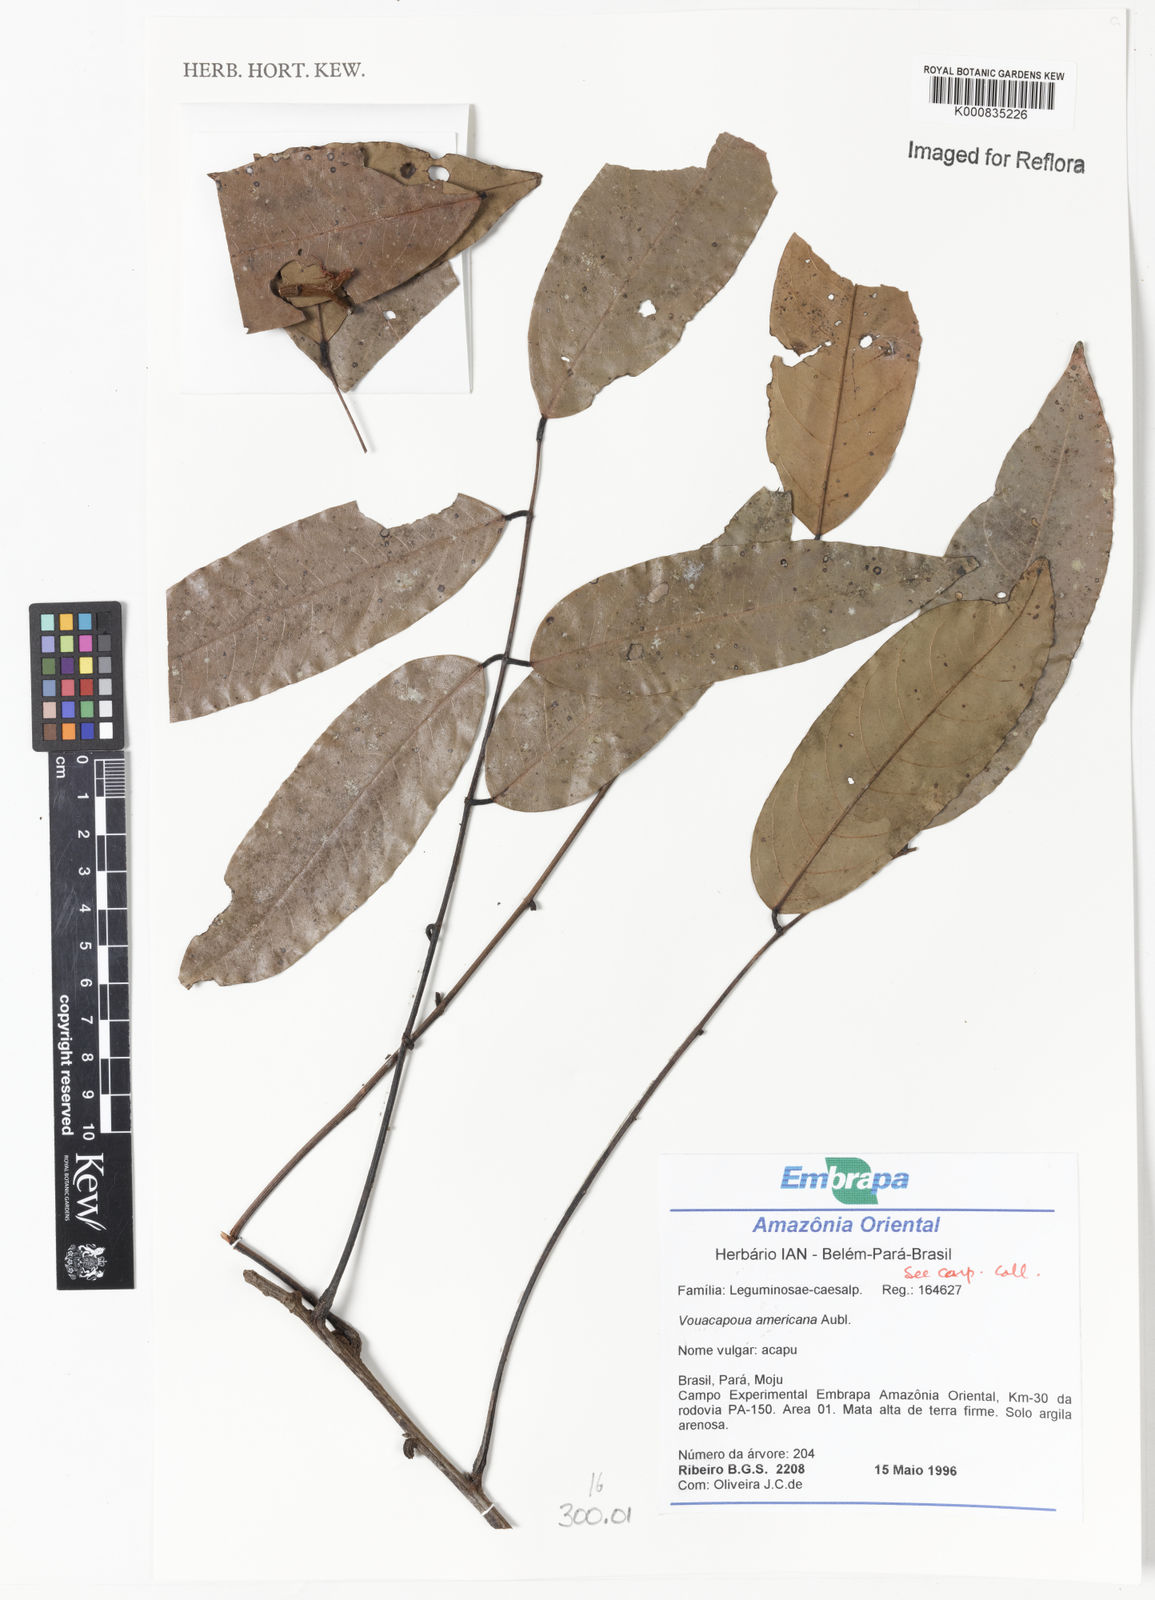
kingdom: Plantae
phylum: Tracheophyta
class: Magnoliopsida
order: Fabales
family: Fabaceae
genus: Vouacapoua
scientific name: Vouacapoua americana
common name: Partridgewood
